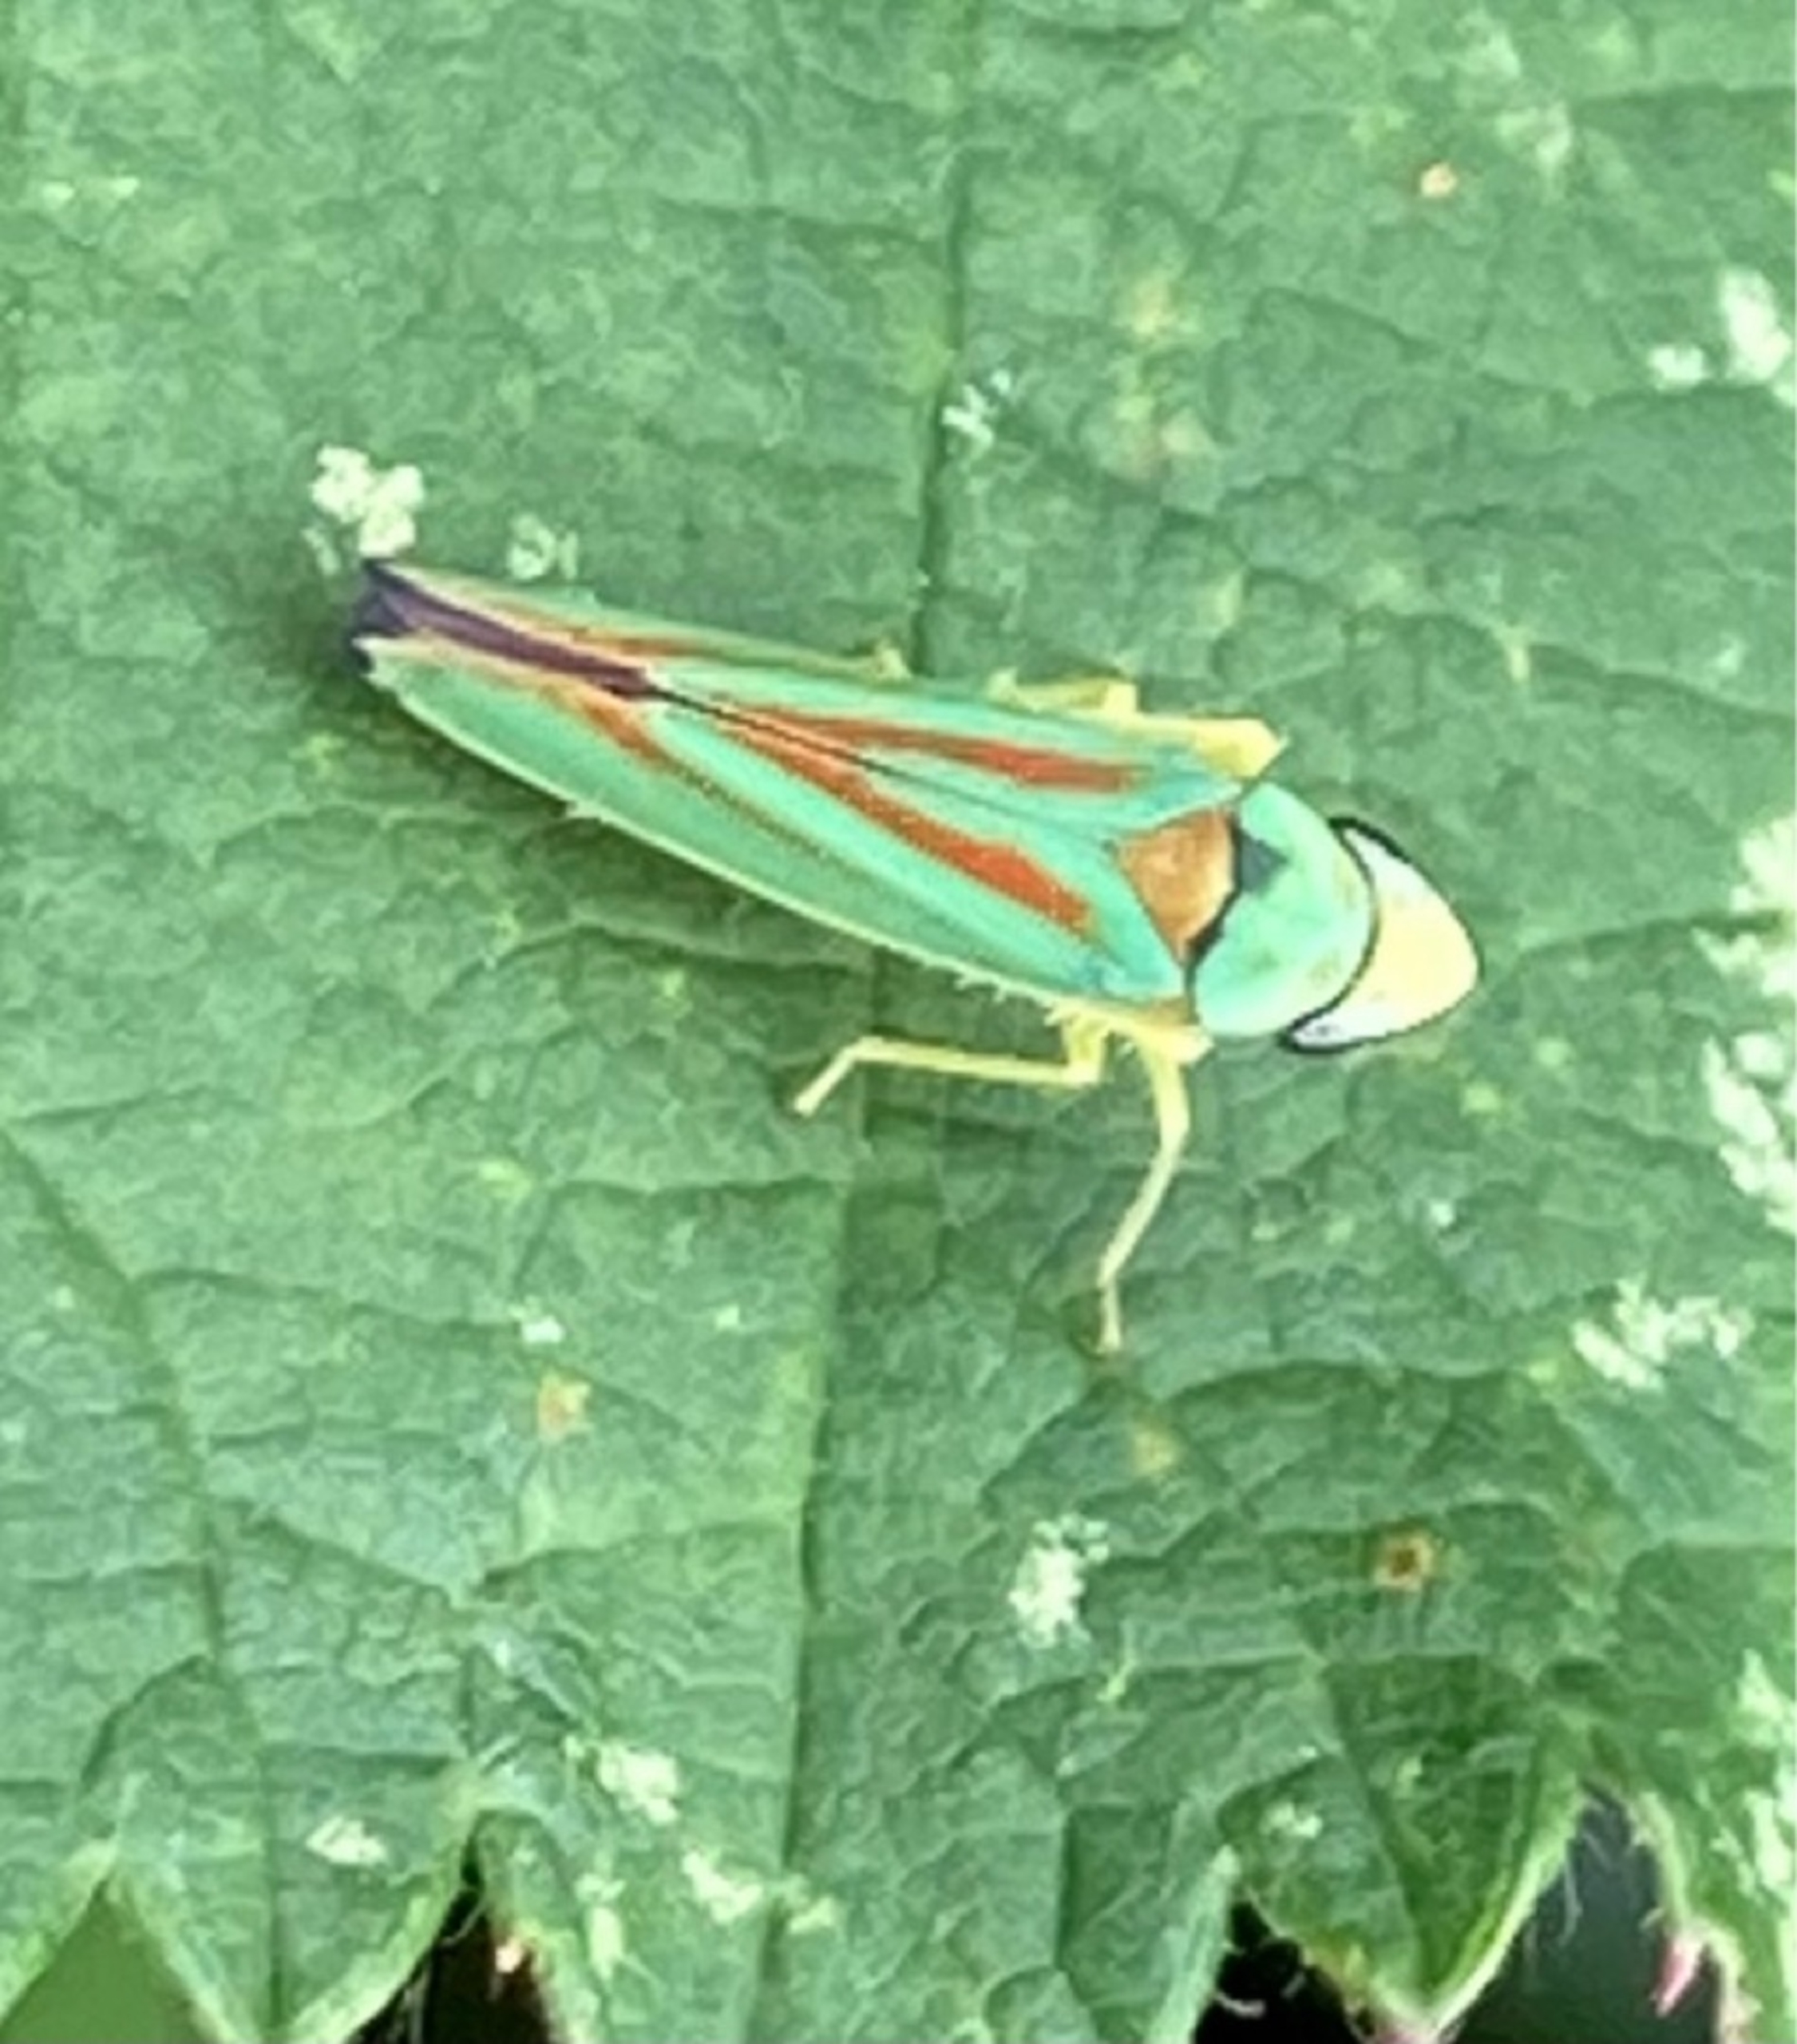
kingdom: Animalia
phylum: Arthropoda
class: Insecta
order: Hemiptera
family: Cicadellidae
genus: Graphocephala
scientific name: Graphocephala fennahi
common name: Rododendroncikade
